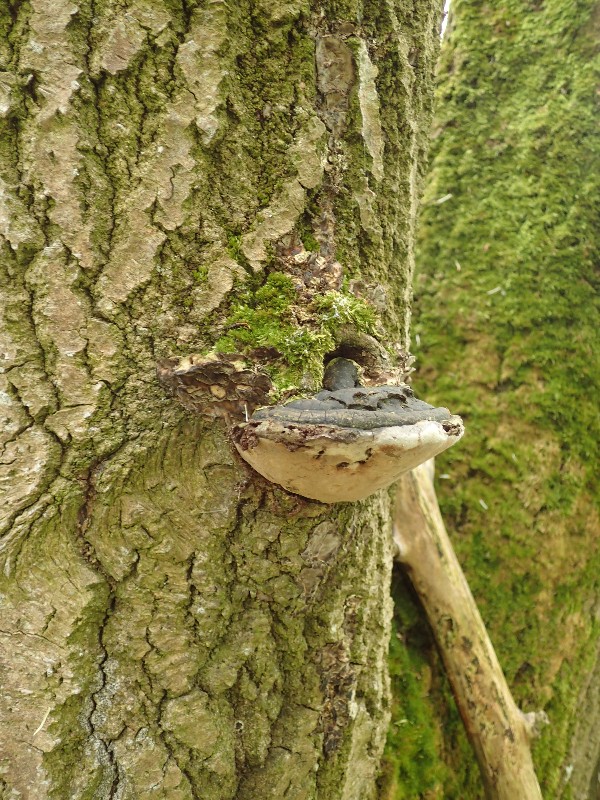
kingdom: Fungi
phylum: Basidiomycota
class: Agaricomycetes
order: Hymenochaetales
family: Hymenochaetaceae
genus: Phellinus
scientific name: Phellinus tremulae
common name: aspe-ildporesvamp
